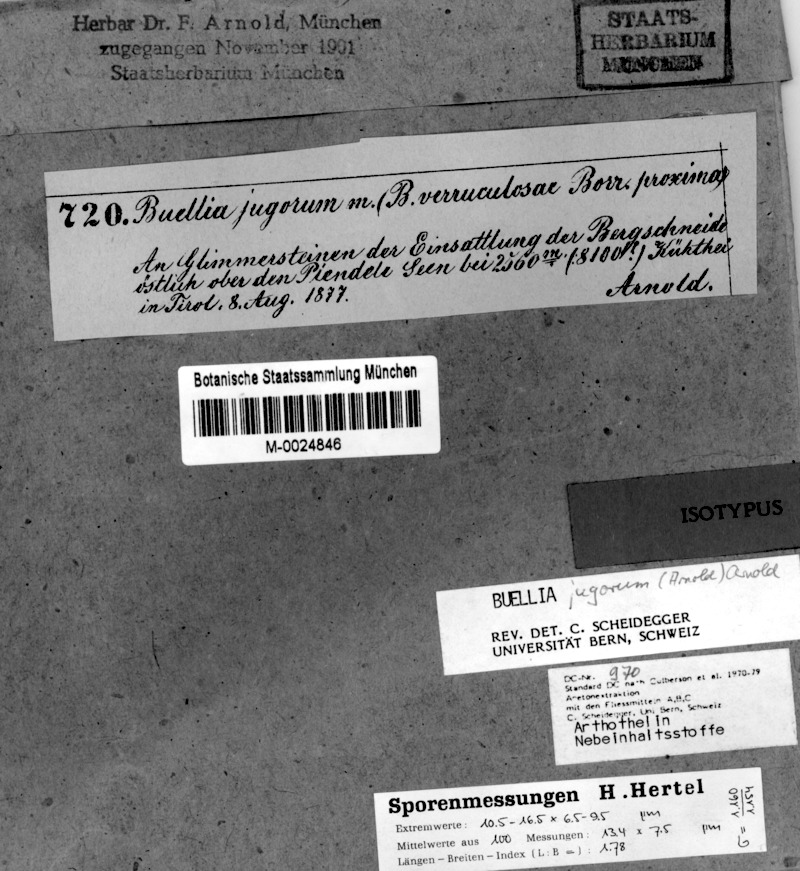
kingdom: Fungi
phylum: Ascomycota
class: Lecanoromycetes
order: Caliciales
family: Caliciaceae
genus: Buellia
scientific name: Buellia jugorum
